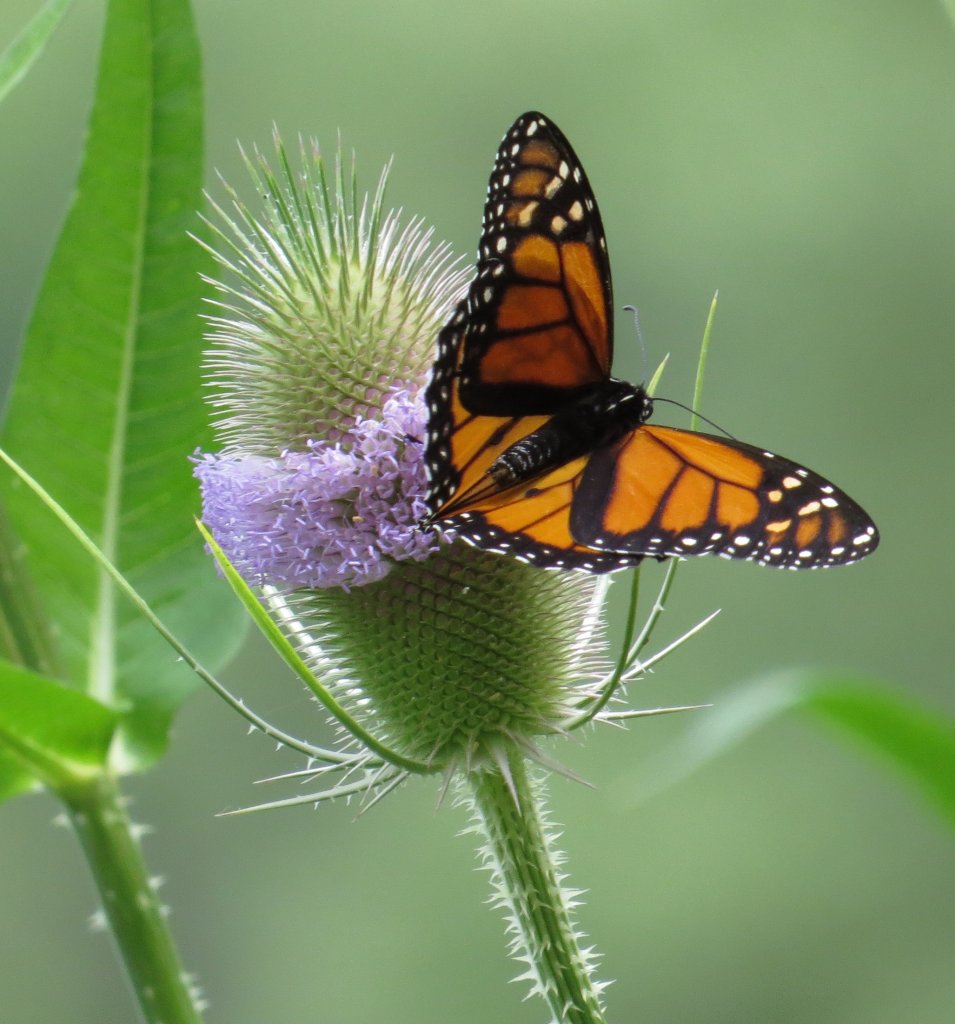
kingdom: Animalia
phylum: Arthropoda
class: Insecta
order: Lepidoptera
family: Nymphalidae
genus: Danaus
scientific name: Danaus plexippus
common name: Monarch
